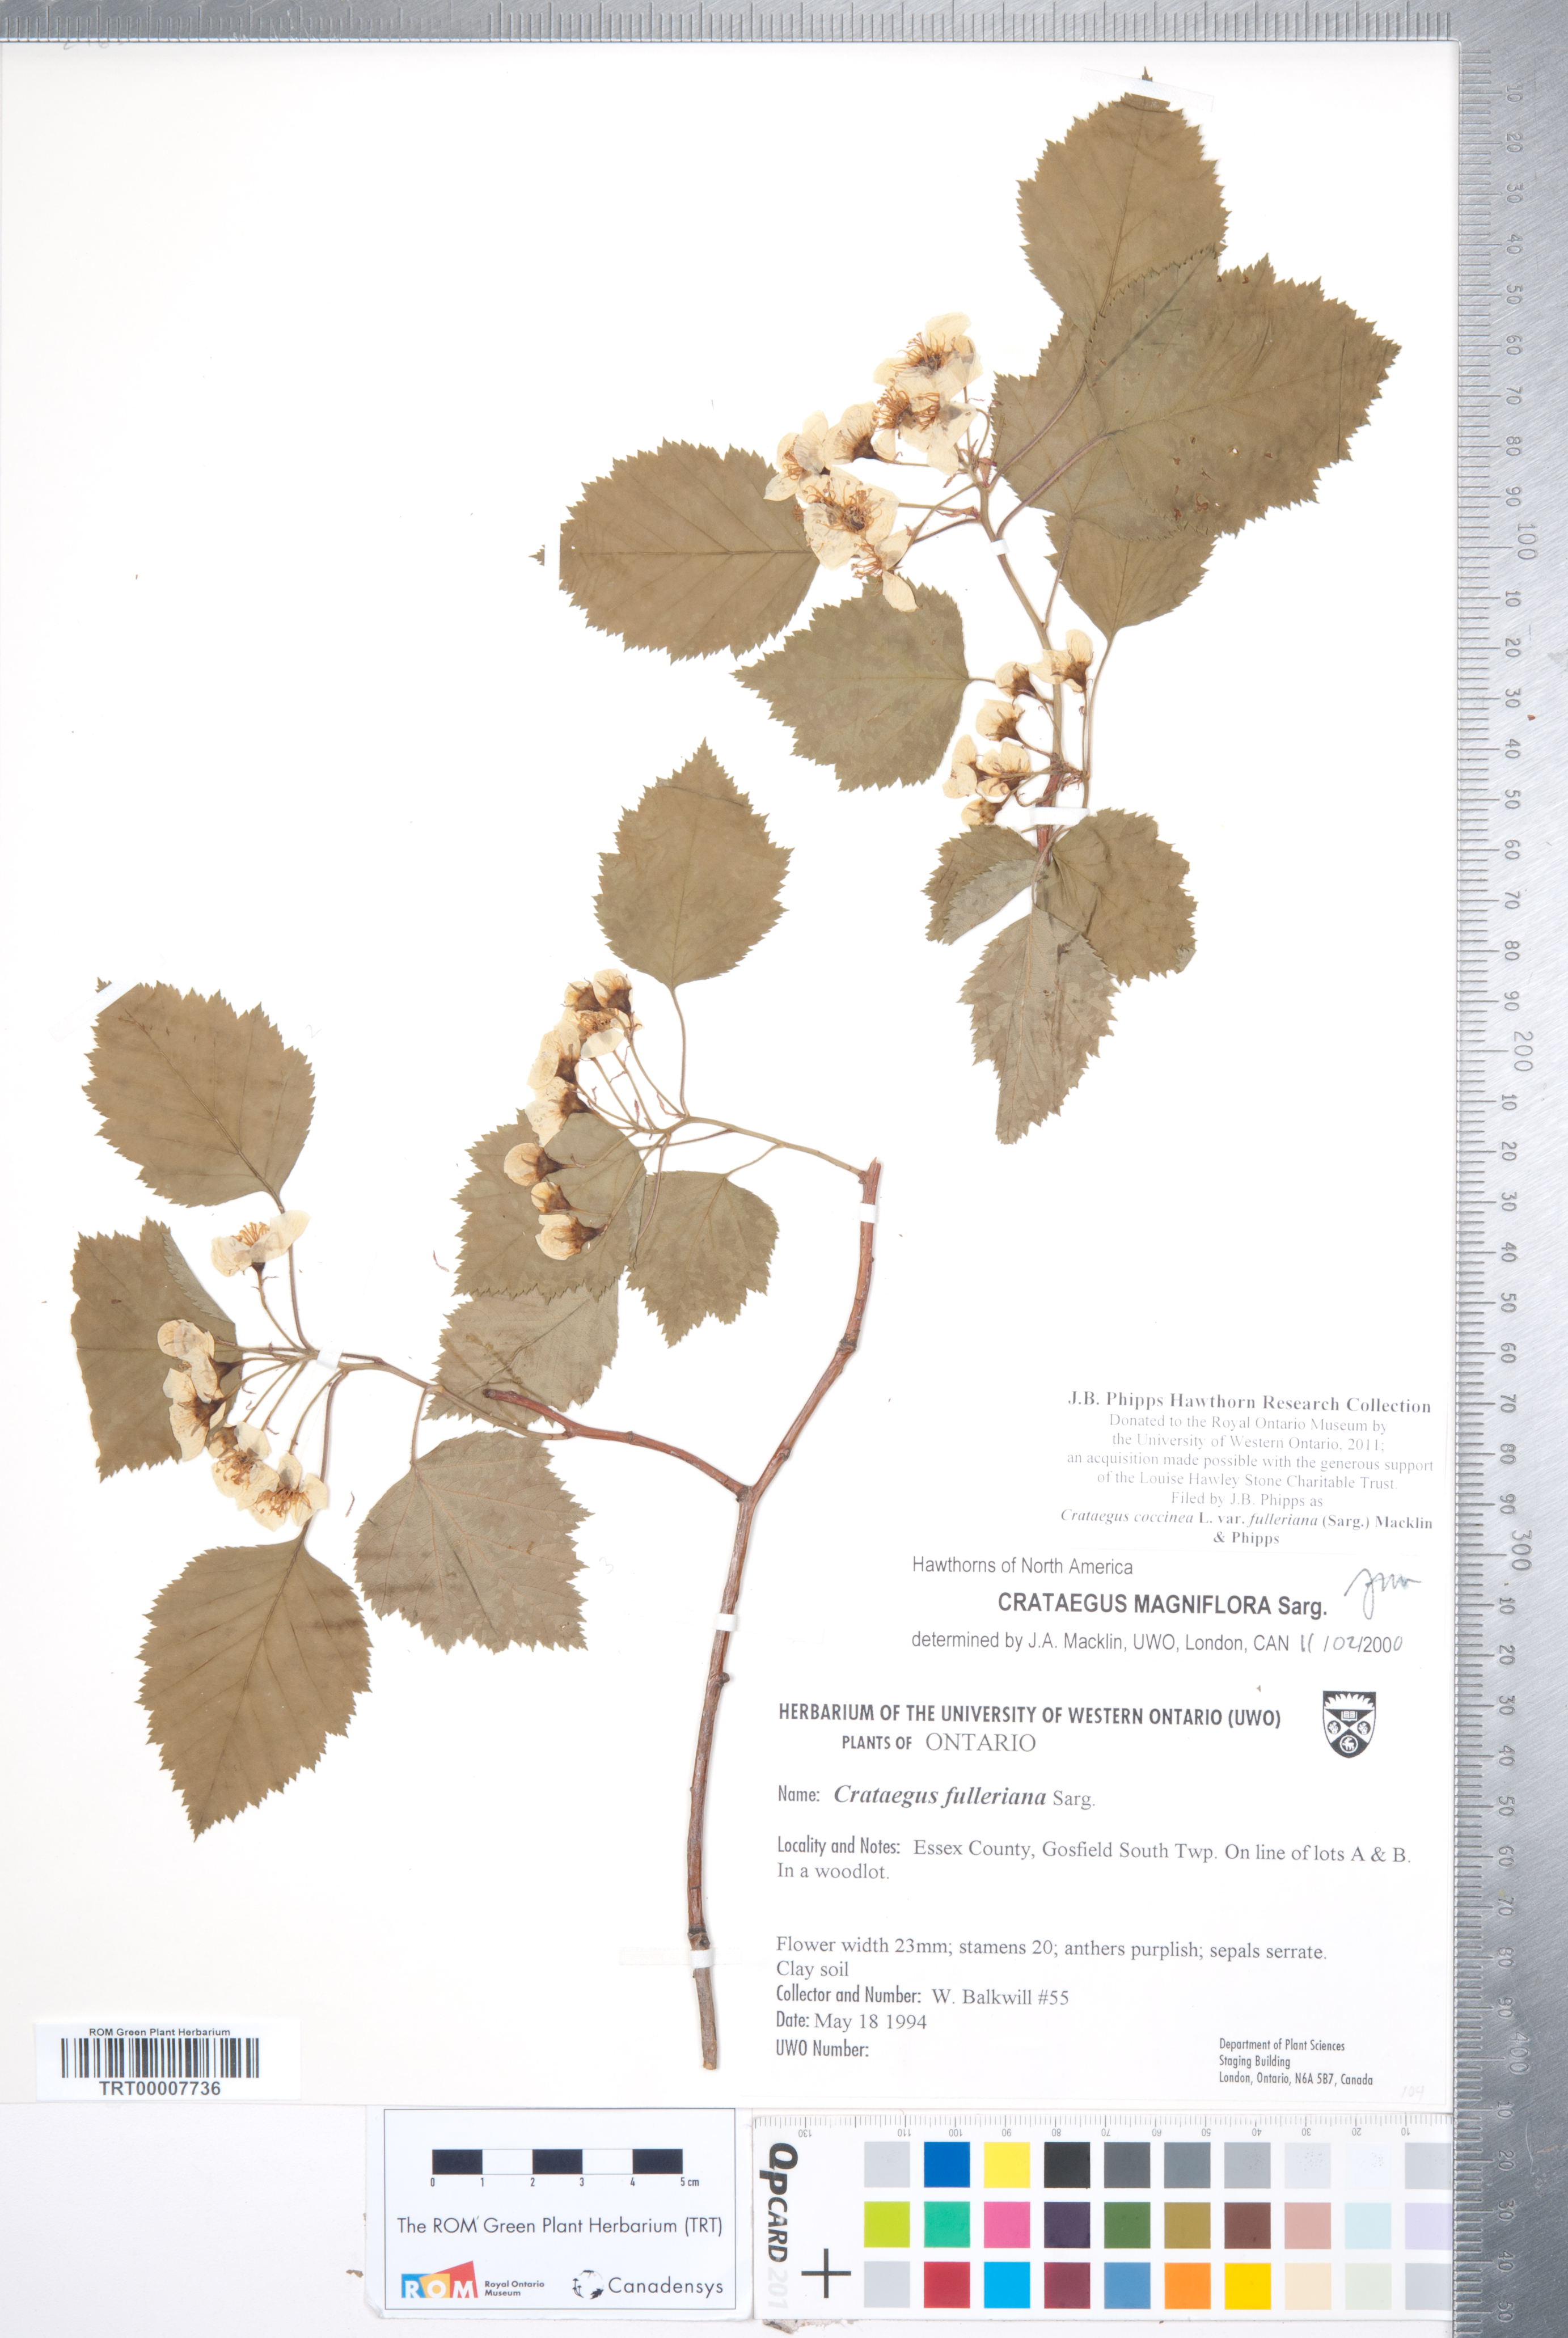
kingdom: Plantae
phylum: Tracheophyta
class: Magnoliopsida
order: Rosales
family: Rosaceae
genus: Crataegus
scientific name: Crataegus coccinea
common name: Scarlet hawthorn
